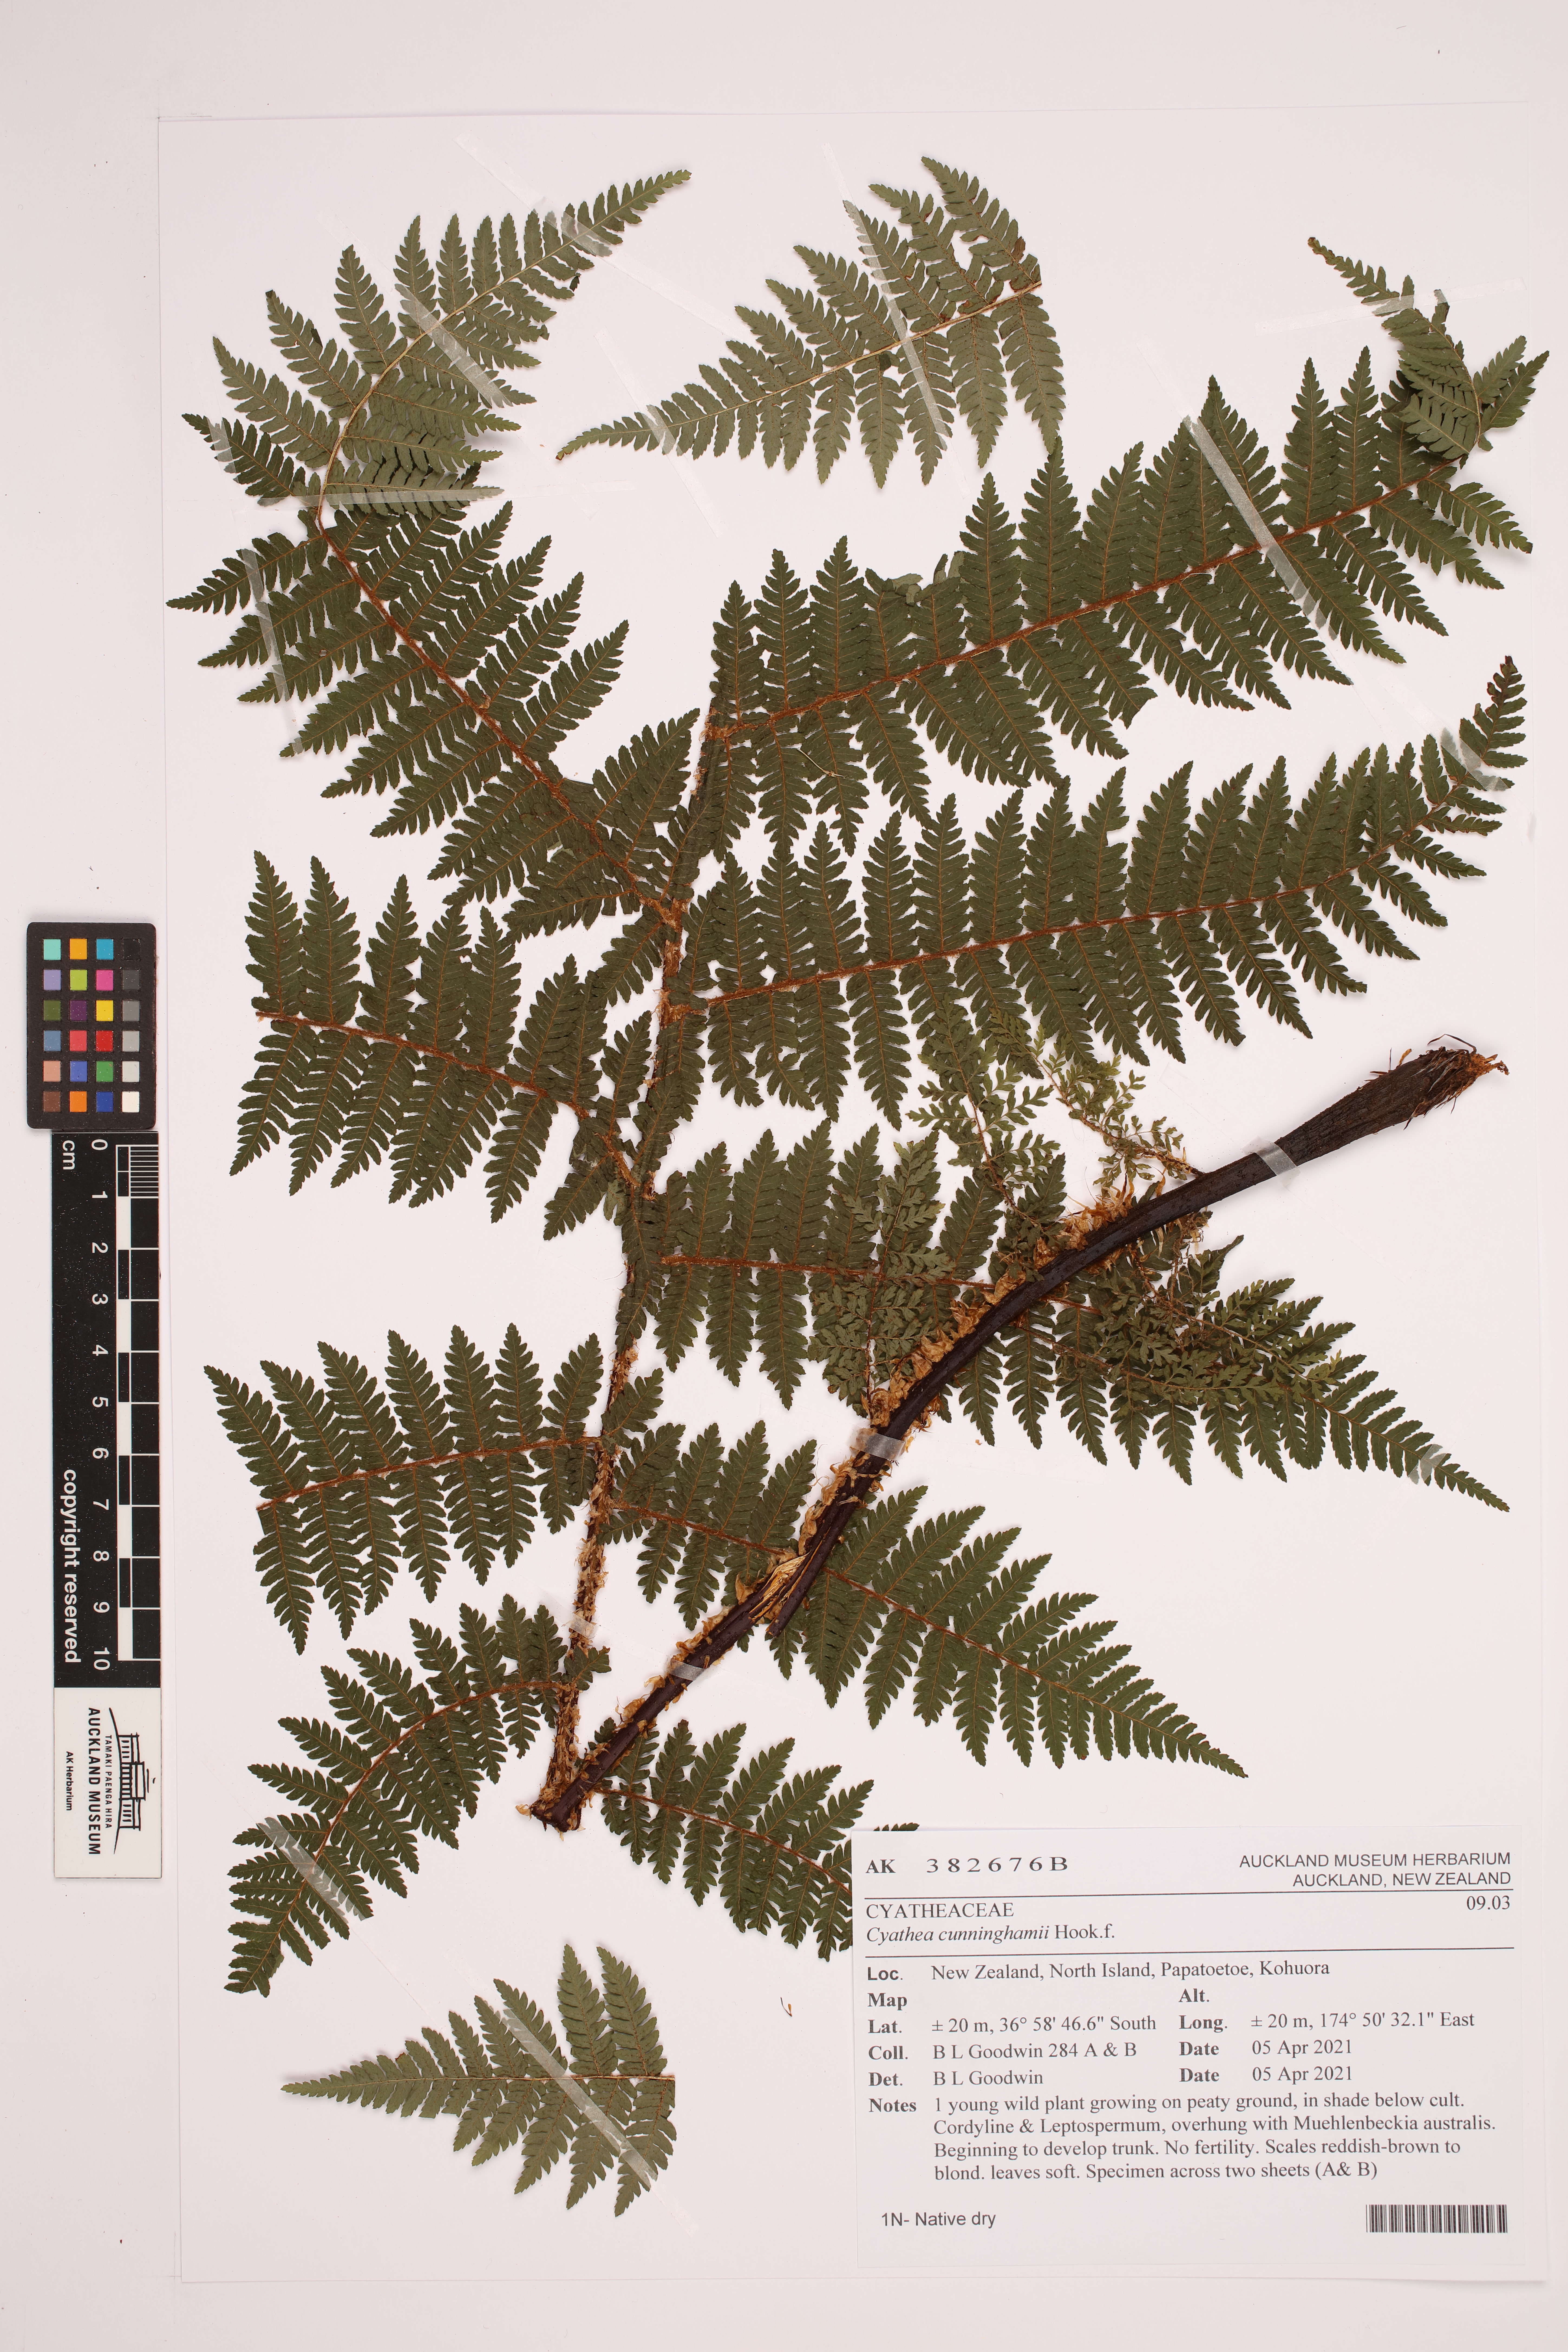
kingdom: Plantae
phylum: Tracheophyta
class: Polypodiopsida
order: Cyatheales
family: Cyatheaceae
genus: Alsophila
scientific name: Alsophila cunninghamii
